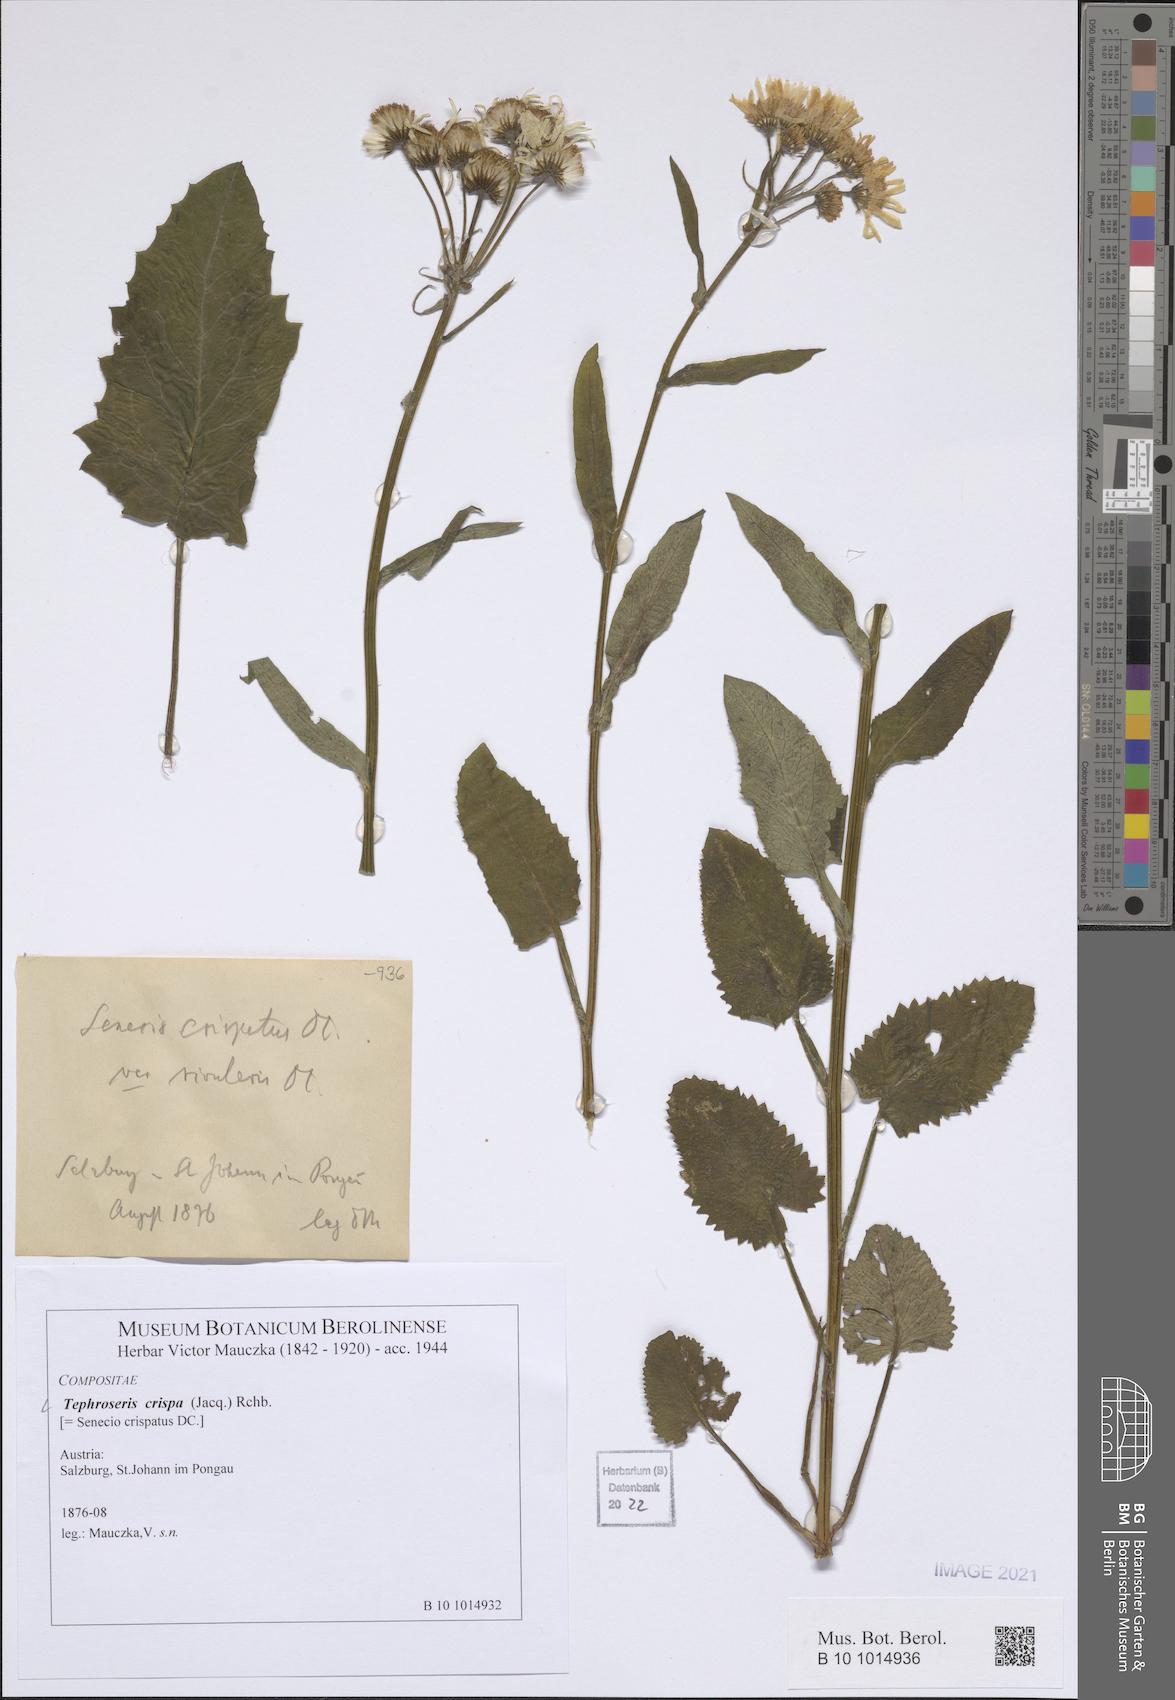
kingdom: Plantae
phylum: Tracheophyta
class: Magnoliopsida
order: Asterales
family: Asteraceae
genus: Tephroseris
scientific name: Tephroseris crispa
